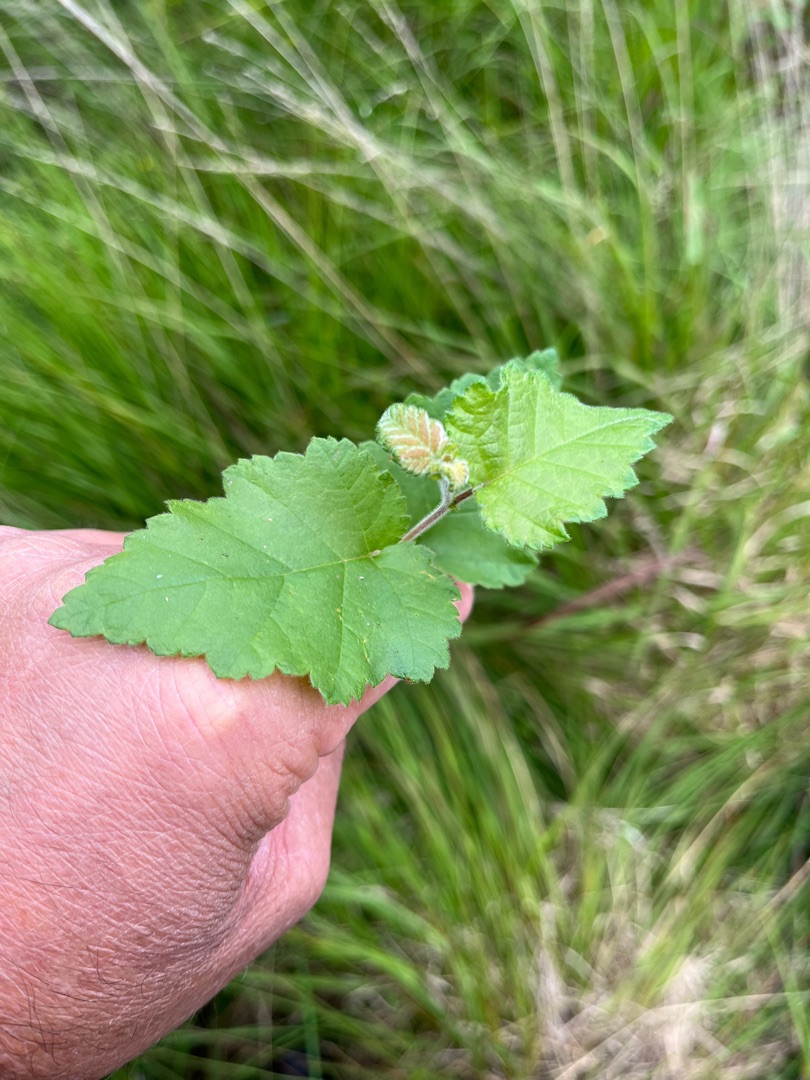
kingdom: Plantae
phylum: Tracheophyta
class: Magnoliopsida
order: Fagales
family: Betulaceae
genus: Betula
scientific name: Betula pubescens
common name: Dun-birk
